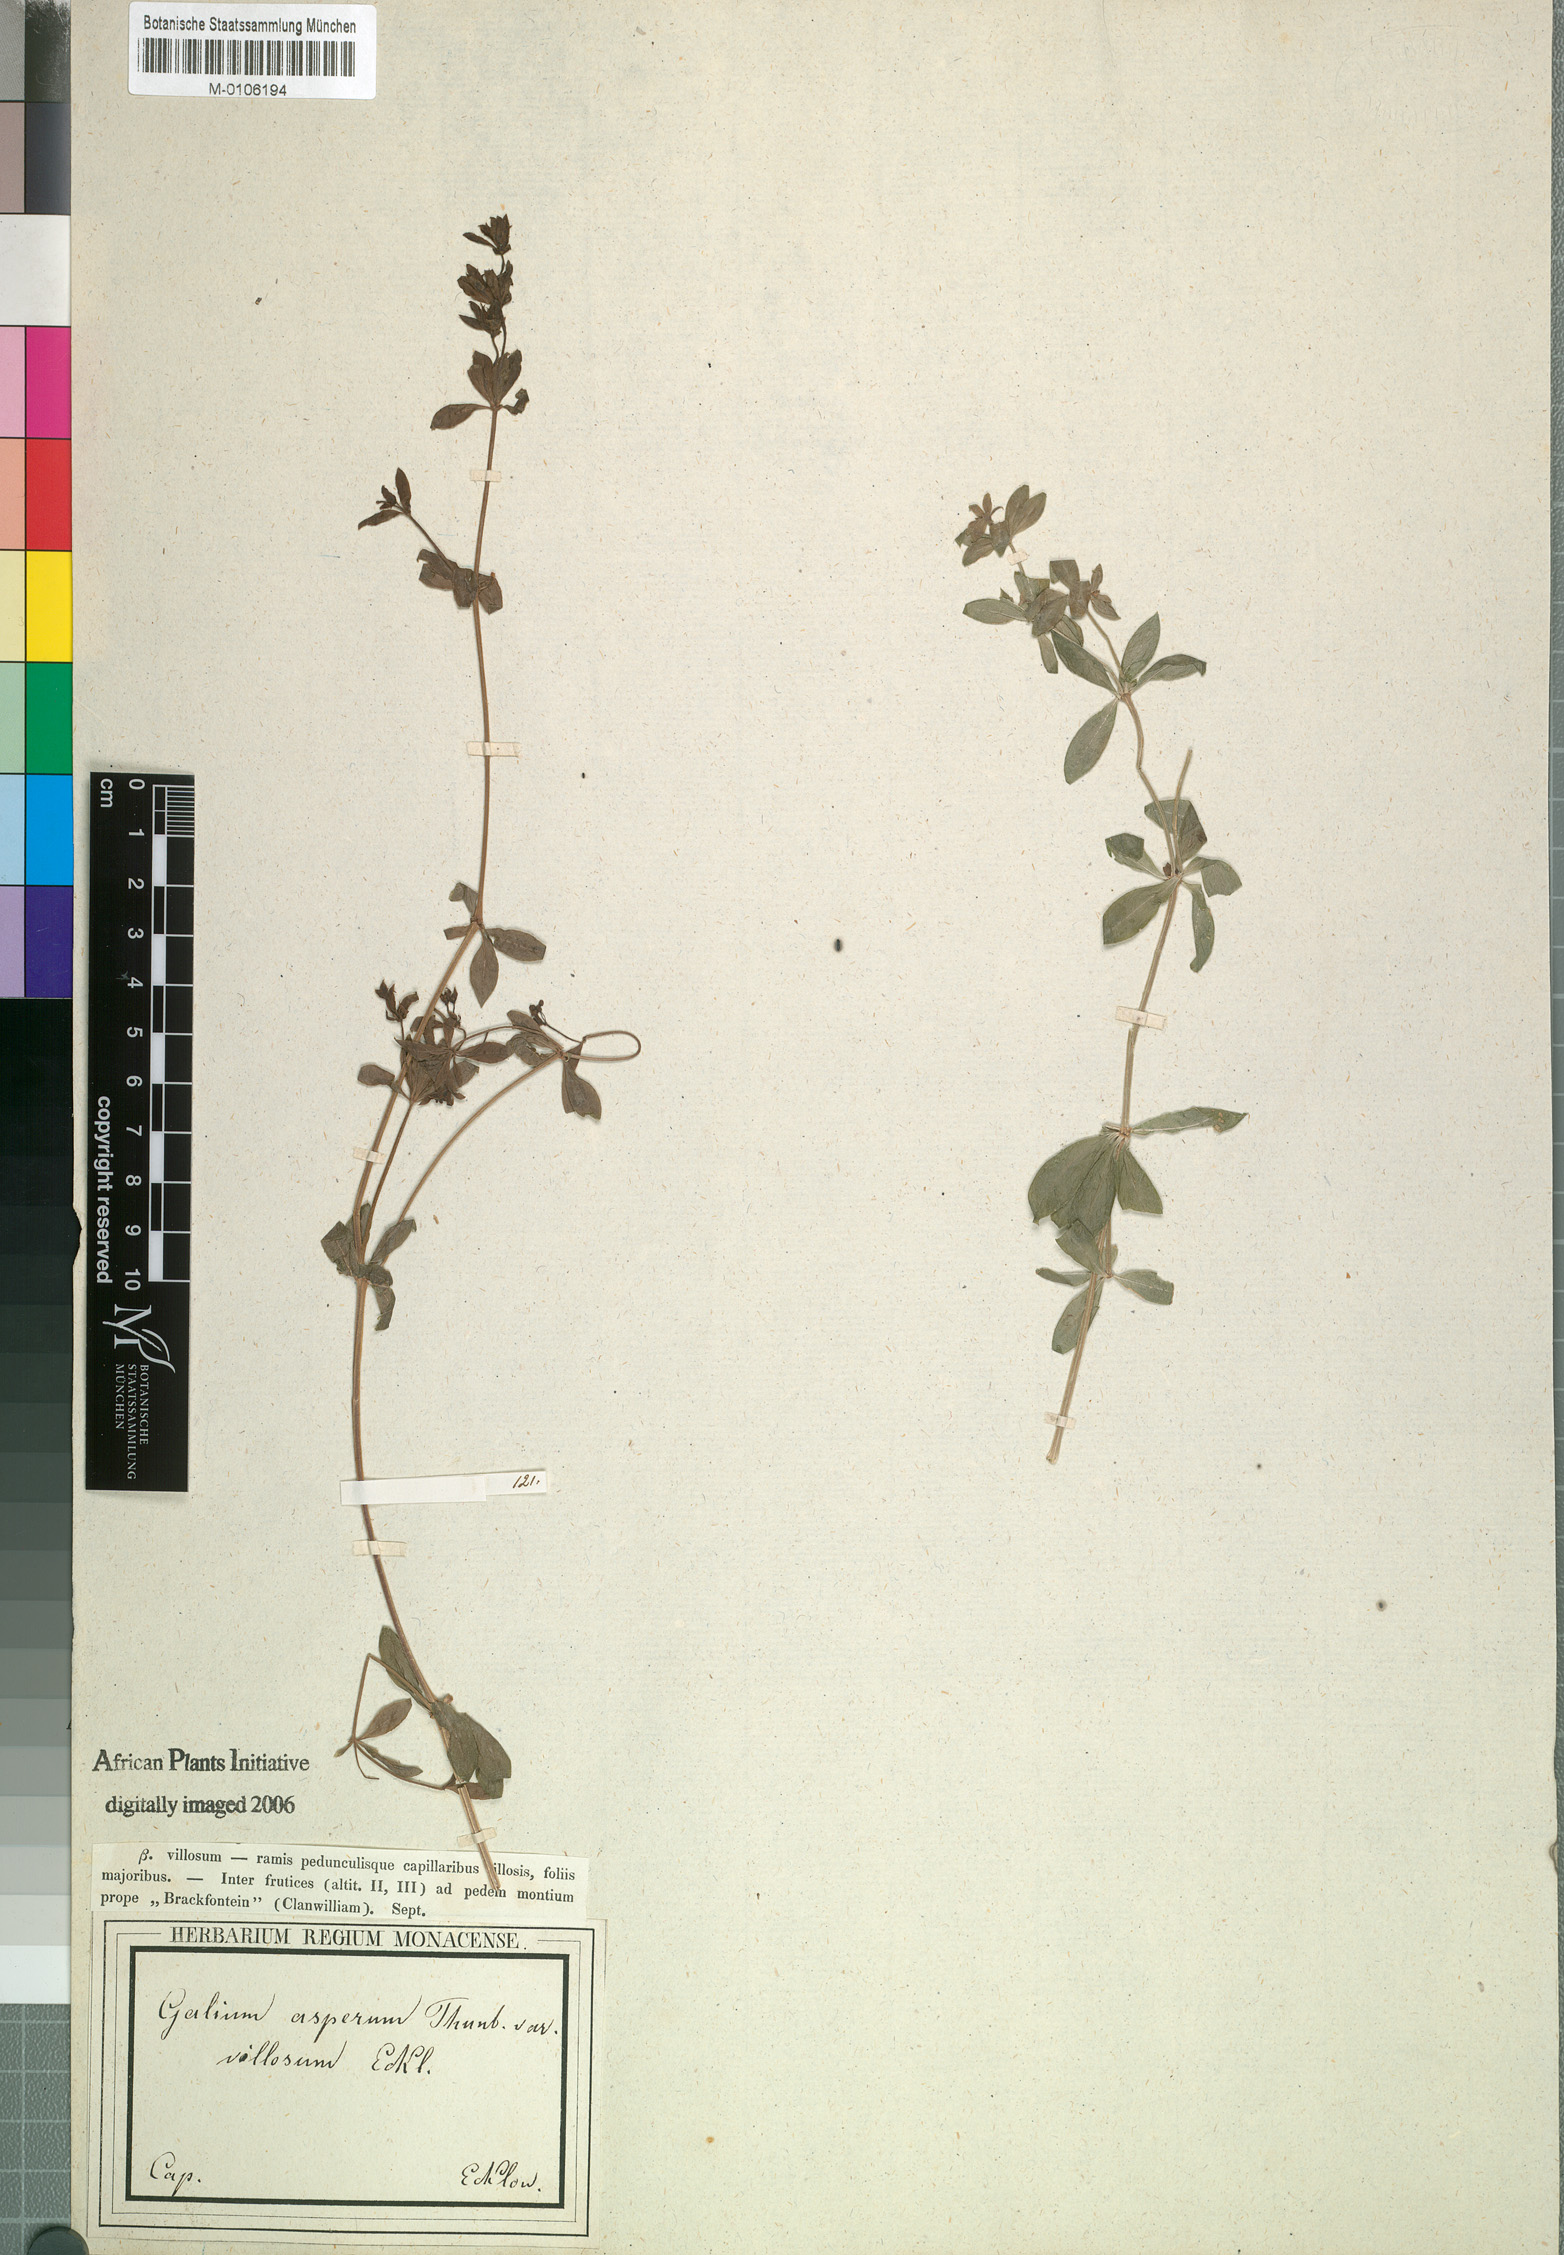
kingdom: Plantae
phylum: Tracheophyta
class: Magnoliopsida
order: Gentianales
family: Rubiaceae
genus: Galium
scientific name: Galium tomentosum
